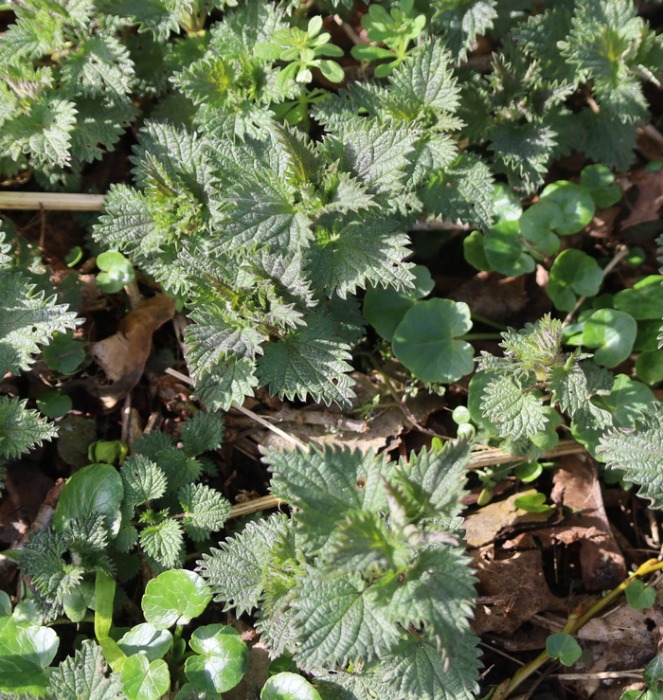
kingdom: Plantae
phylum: Tracheophyta
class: Magnoliopsida
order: Rosales
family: Urticaceae
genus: Urtica
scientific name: Urtica dioica
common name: Stor nælde
